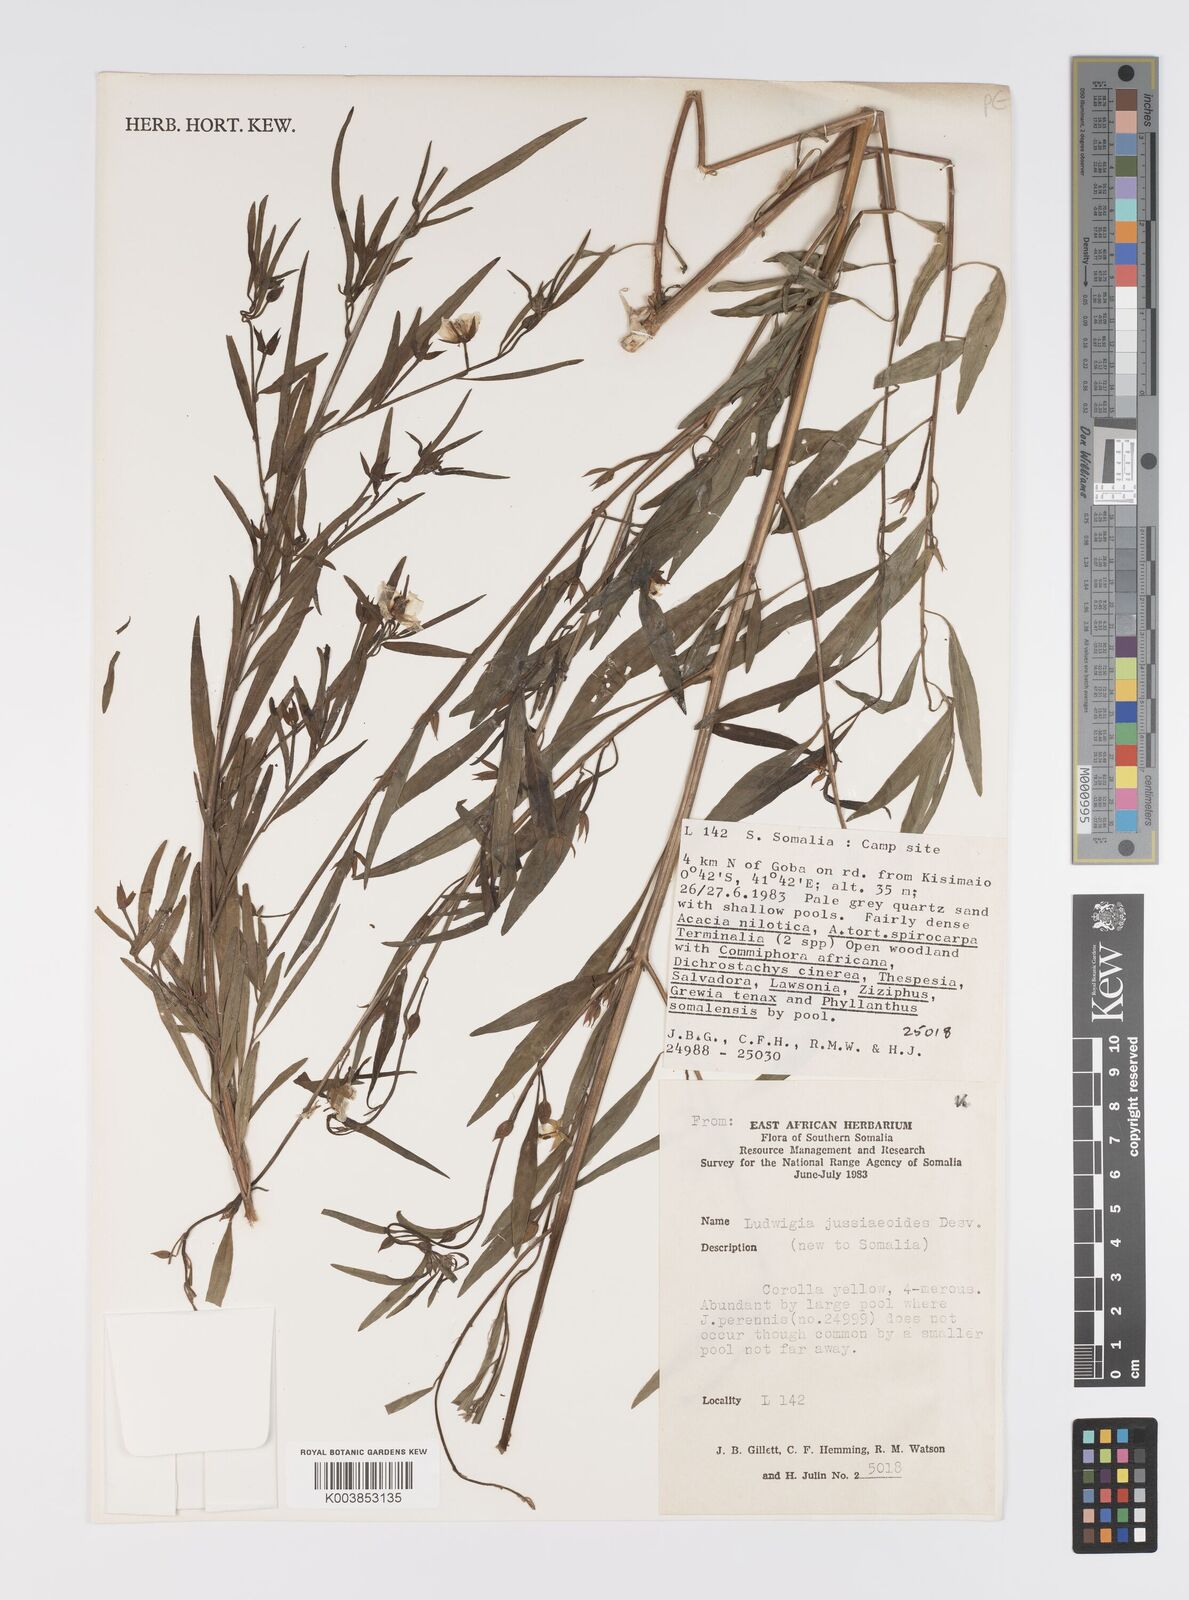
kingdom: Plantae
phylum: Tracheophyta
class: Magnoliopsida
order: Myrtales
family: Onagraceae
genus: Ludwigia
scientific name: Ludwigia jussiaeoides
